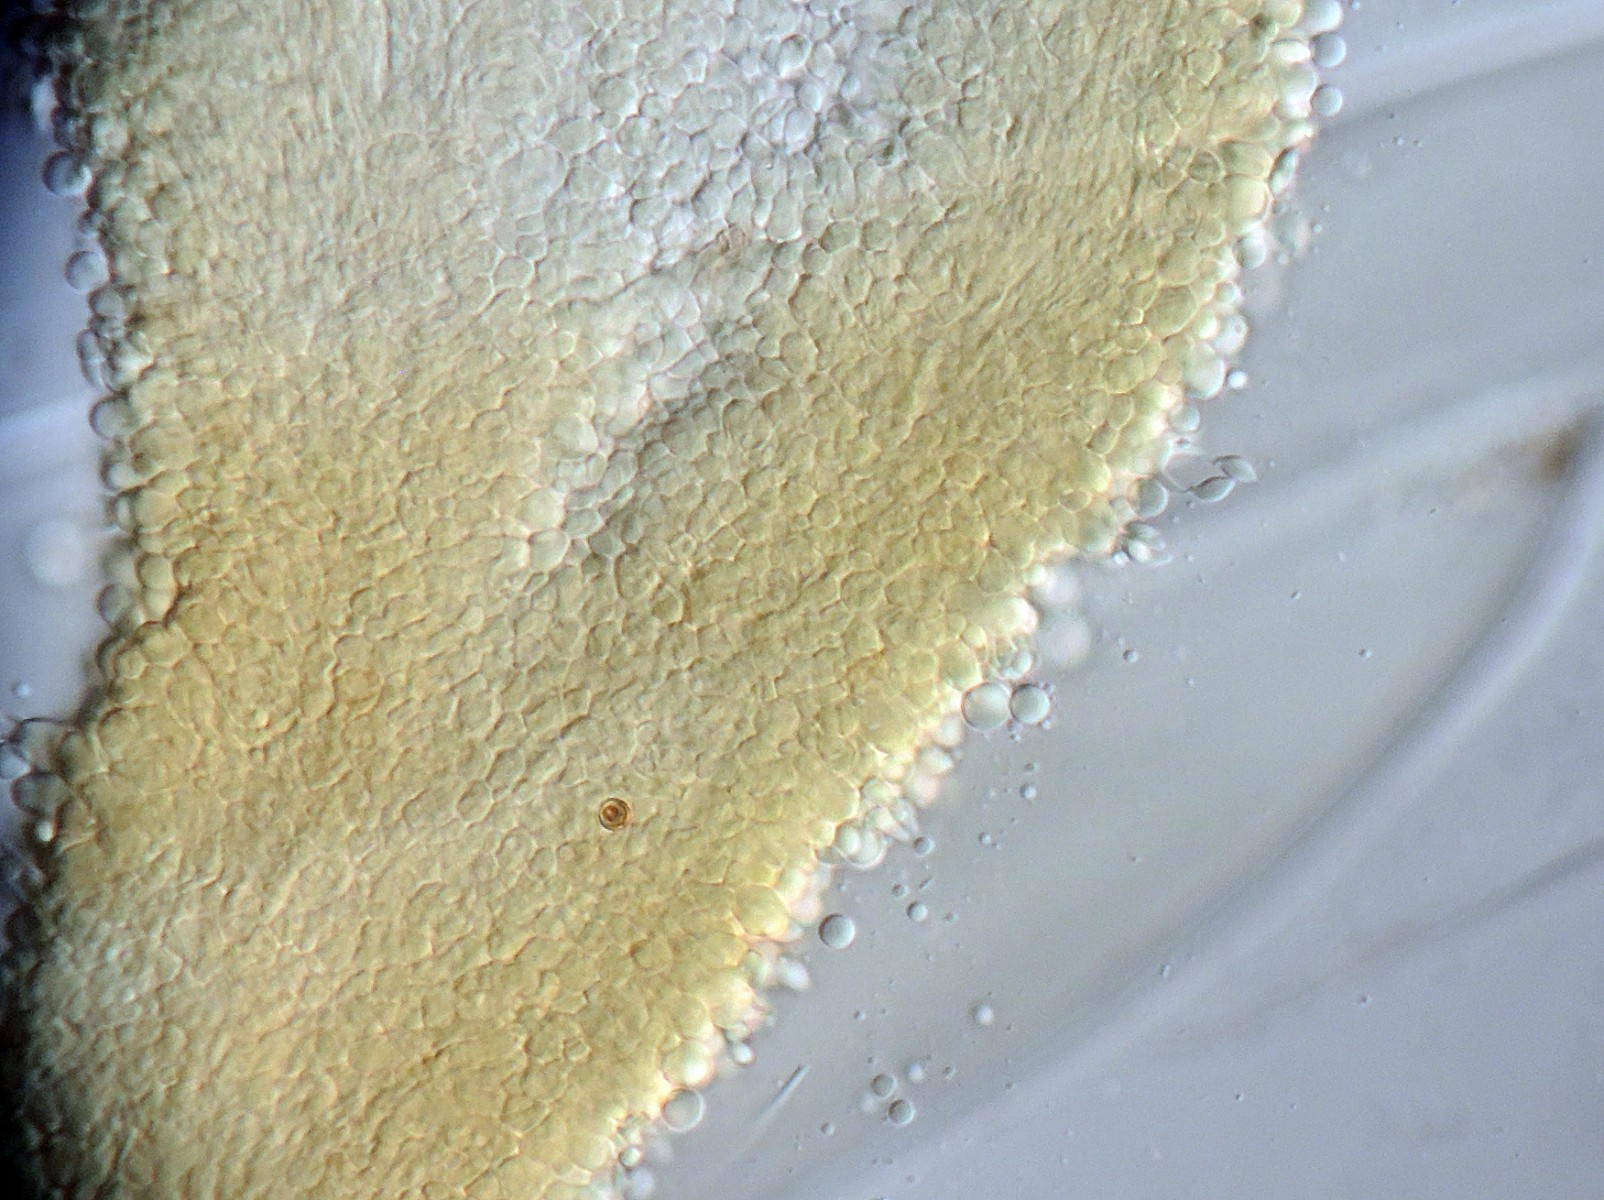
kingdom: Fungi
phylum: Basidiomycota
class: Agaricomycetes
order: Gomphales
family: Gomphaceae
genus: Ceratellopsis
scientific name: Ceratellopsis
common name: sylkølle
